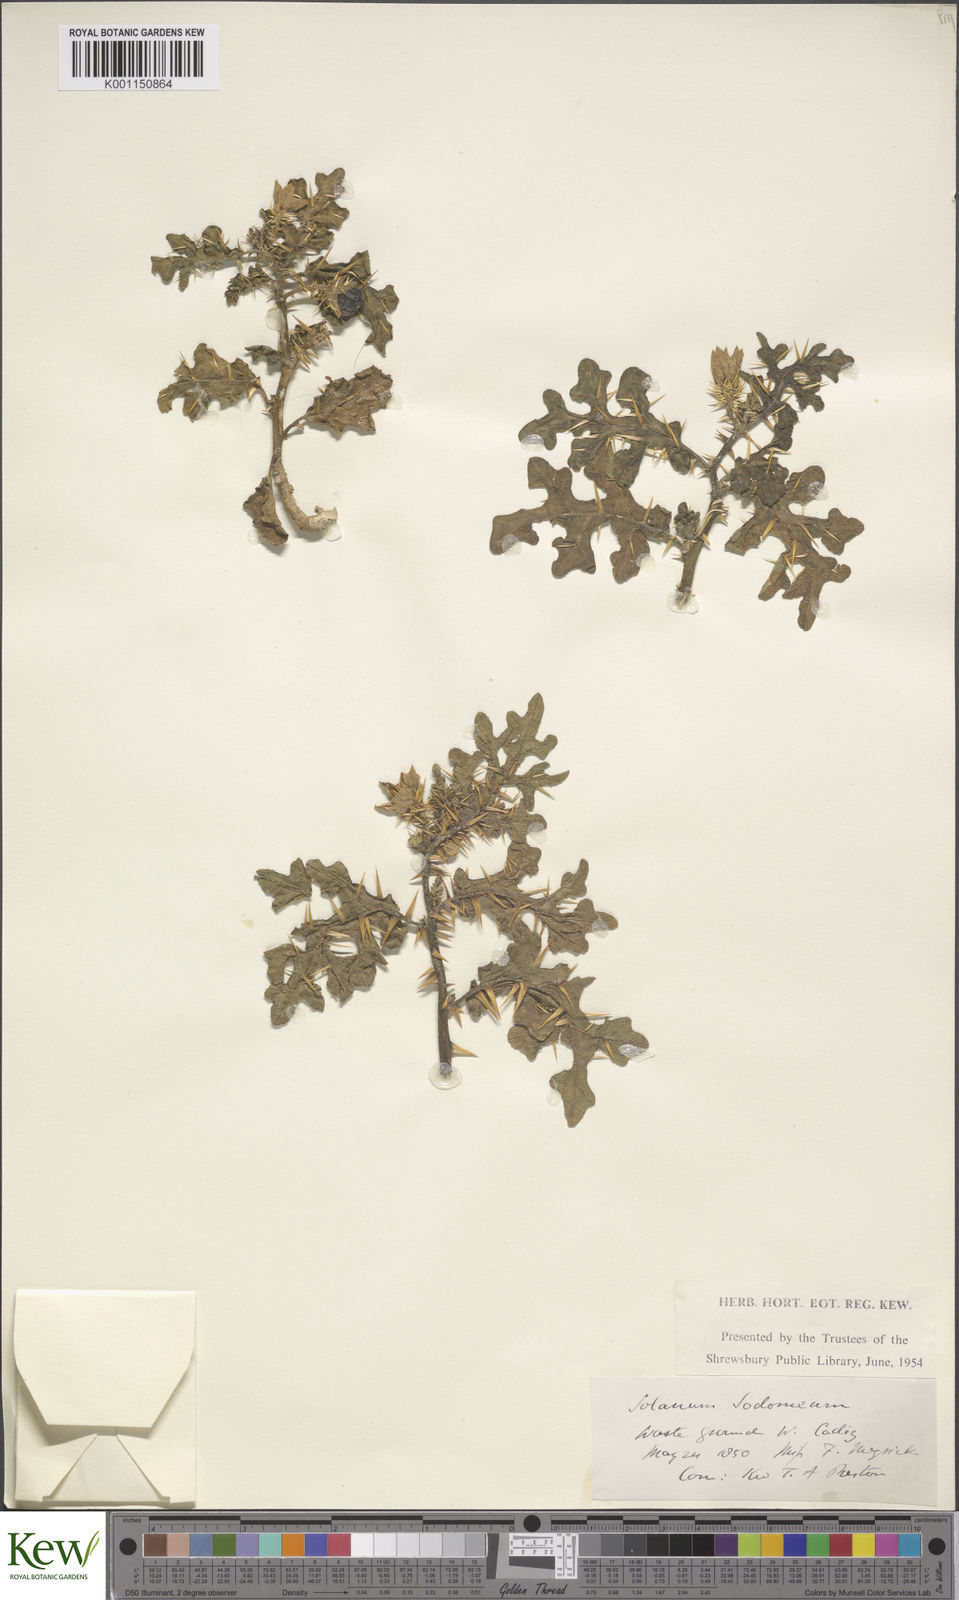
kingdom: Plantae
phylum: Tracheophyta
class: Magnoliopsida
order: Solanales
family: Solanaceae
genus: Solanum
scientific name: Solanum anguivi
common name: Forest bitterberry
